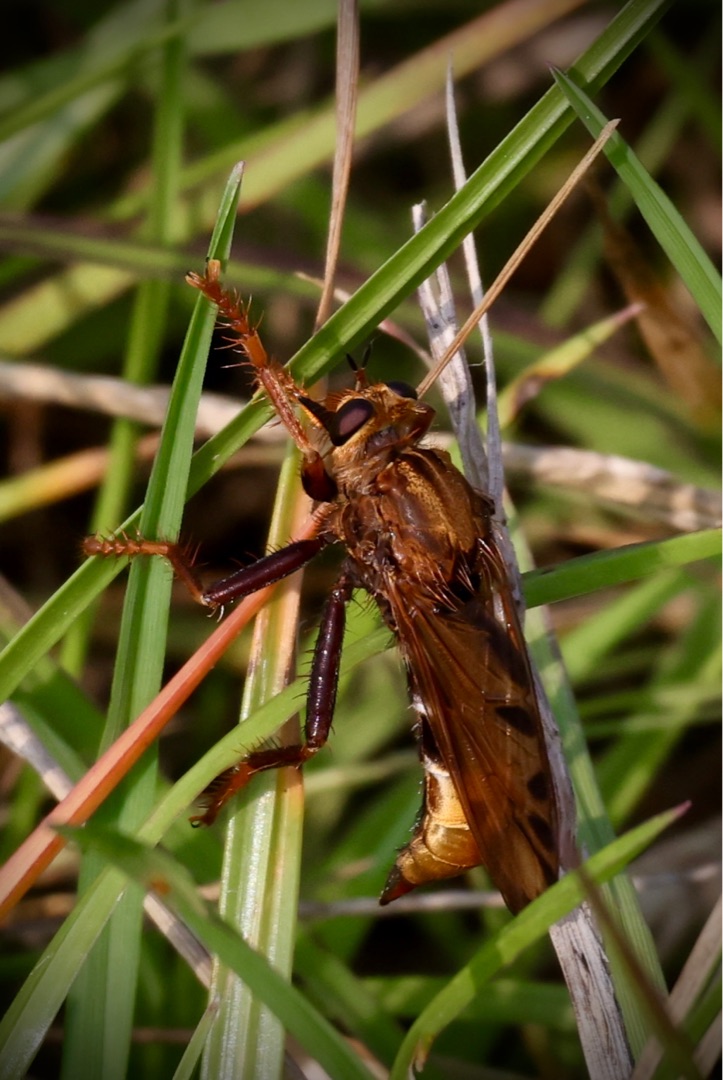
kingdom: Animalia
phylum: Arthropoda
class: Insecta
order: Diptera
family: Asilidae
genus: Asilus
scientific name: Asilus crabroniformis
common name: Stor gødningsrovflue
